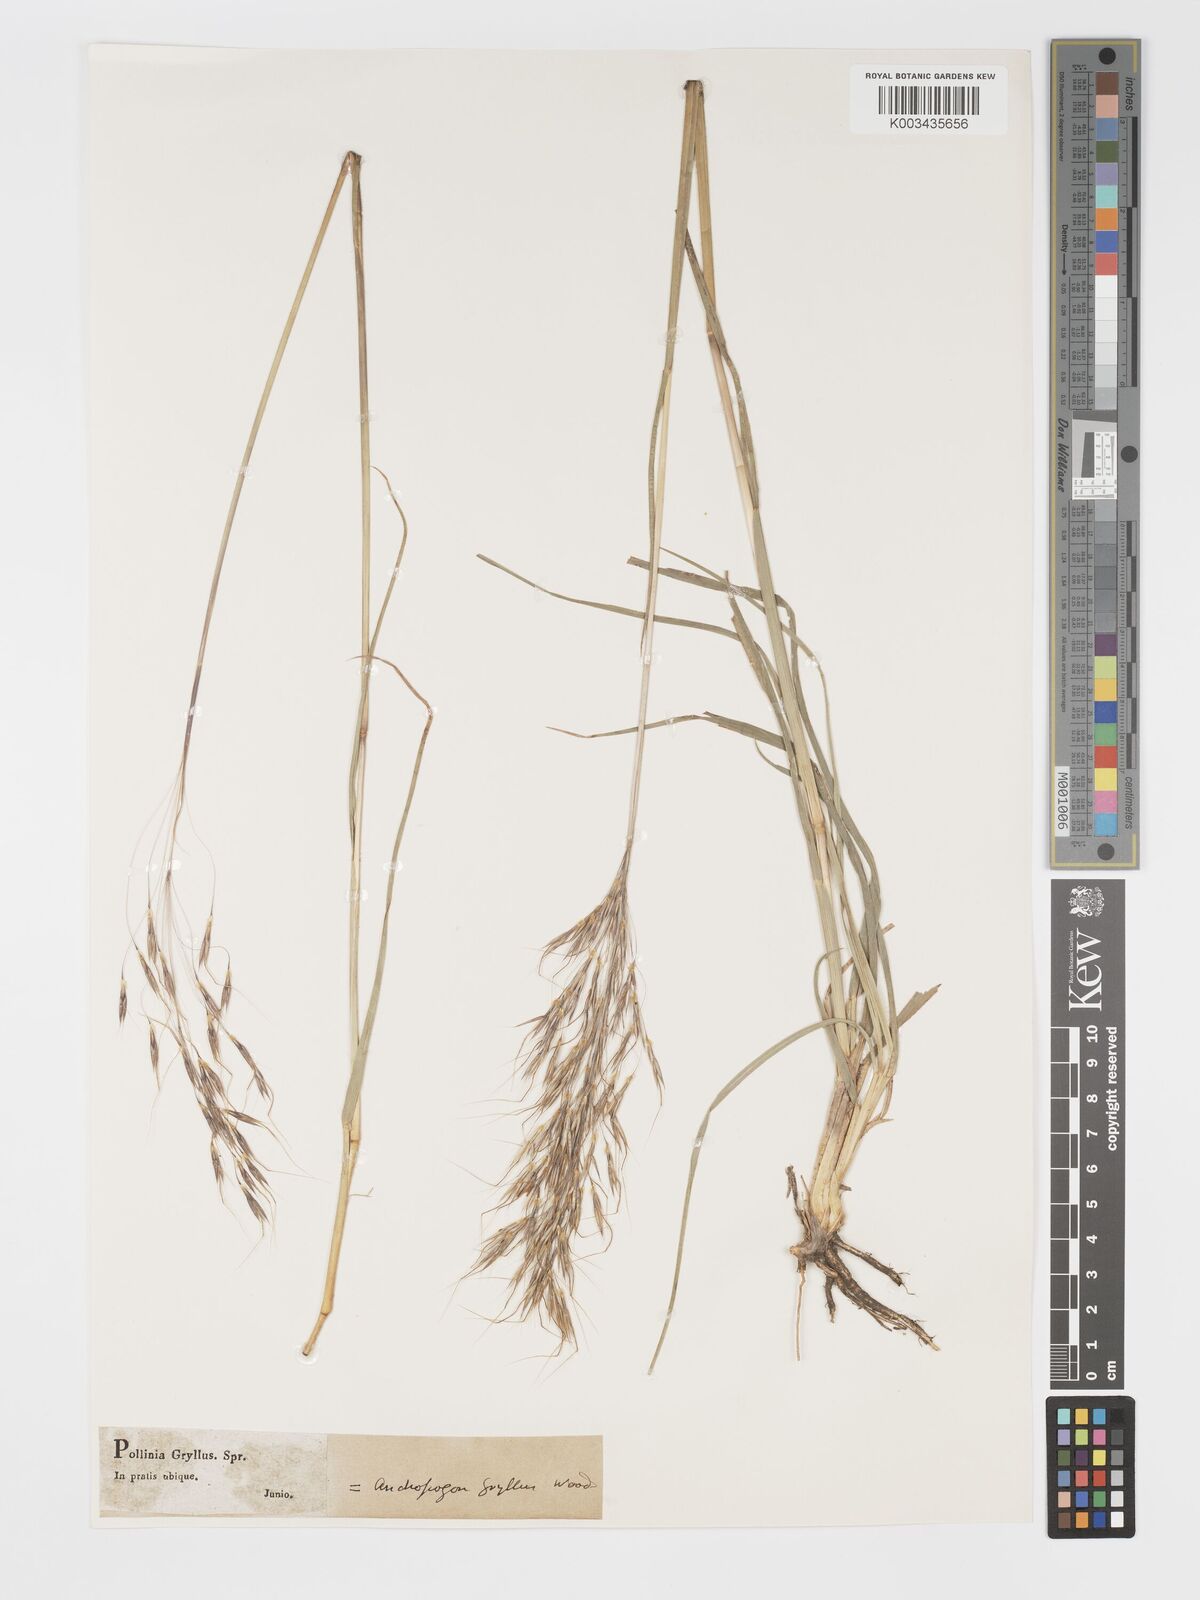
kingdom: Plantae
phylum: Tracheophyta
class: Liliopsida
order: Poales
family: Poaceae
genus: Chrysopogon
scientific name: Chrysopogon gryllus
